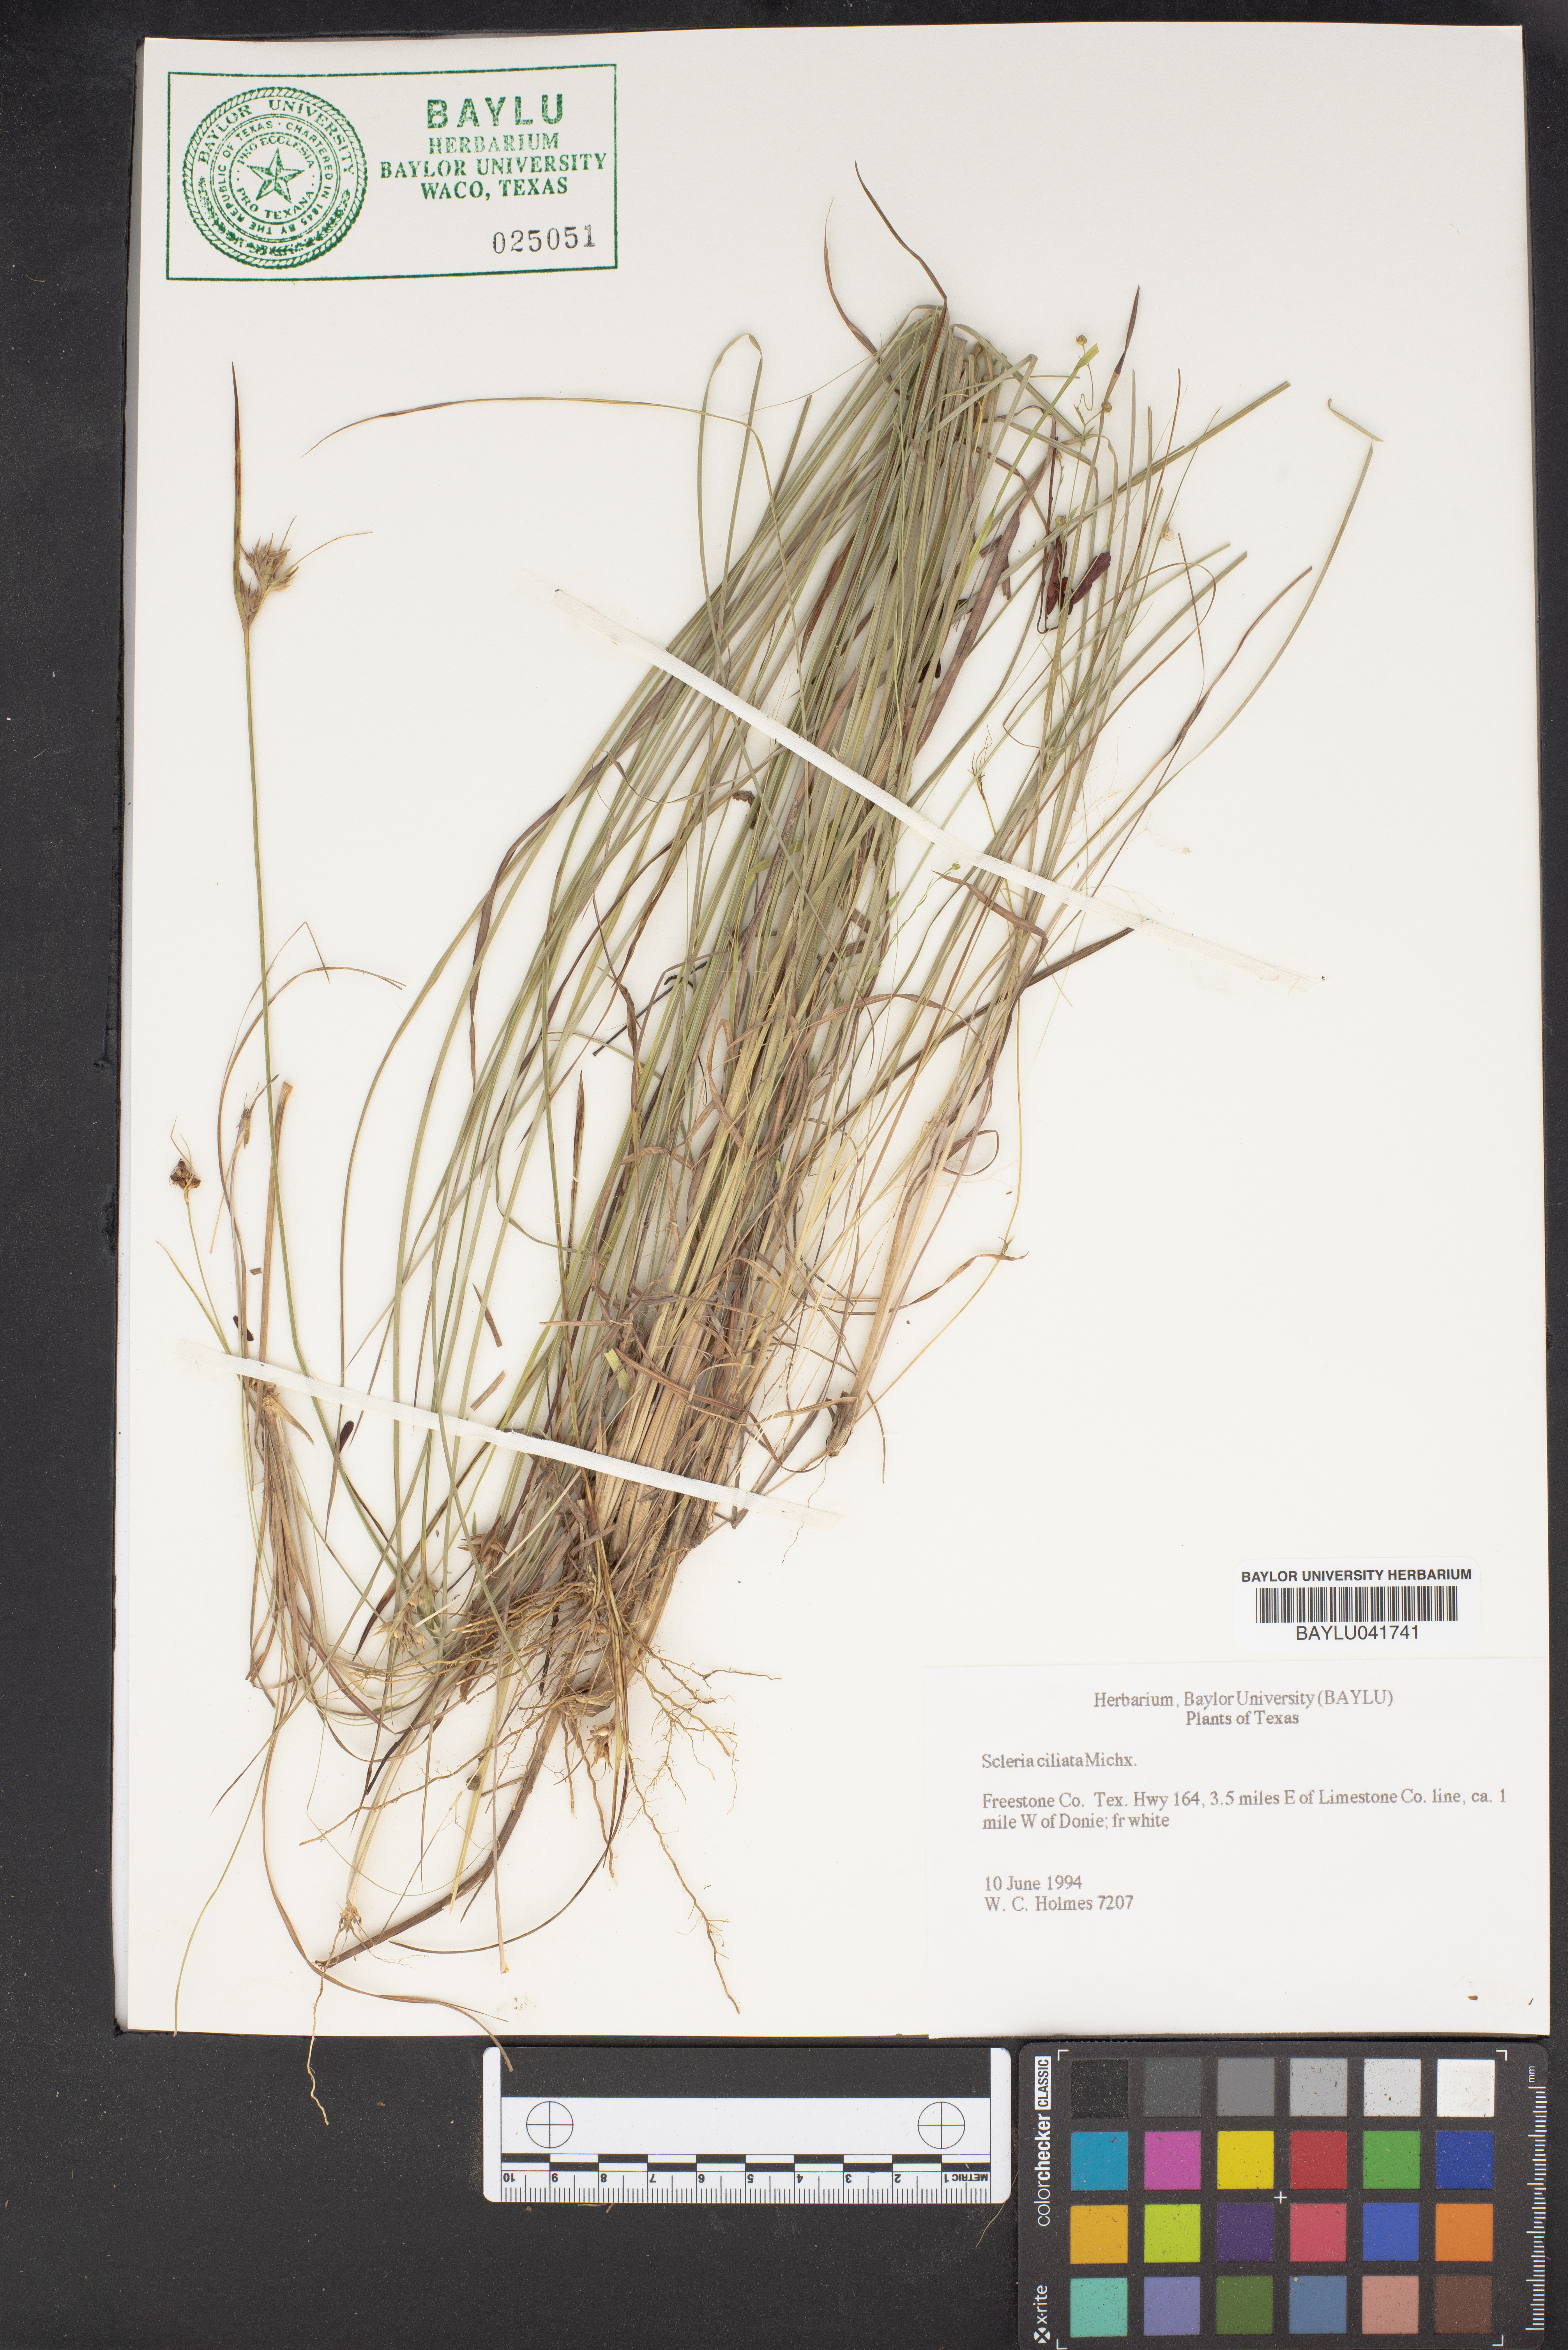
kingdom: Plantae
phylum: Tracheophyta
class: Liliopsida
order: Poales
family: Cyperaceae
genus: Scleria
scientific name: Scleria ciliata
